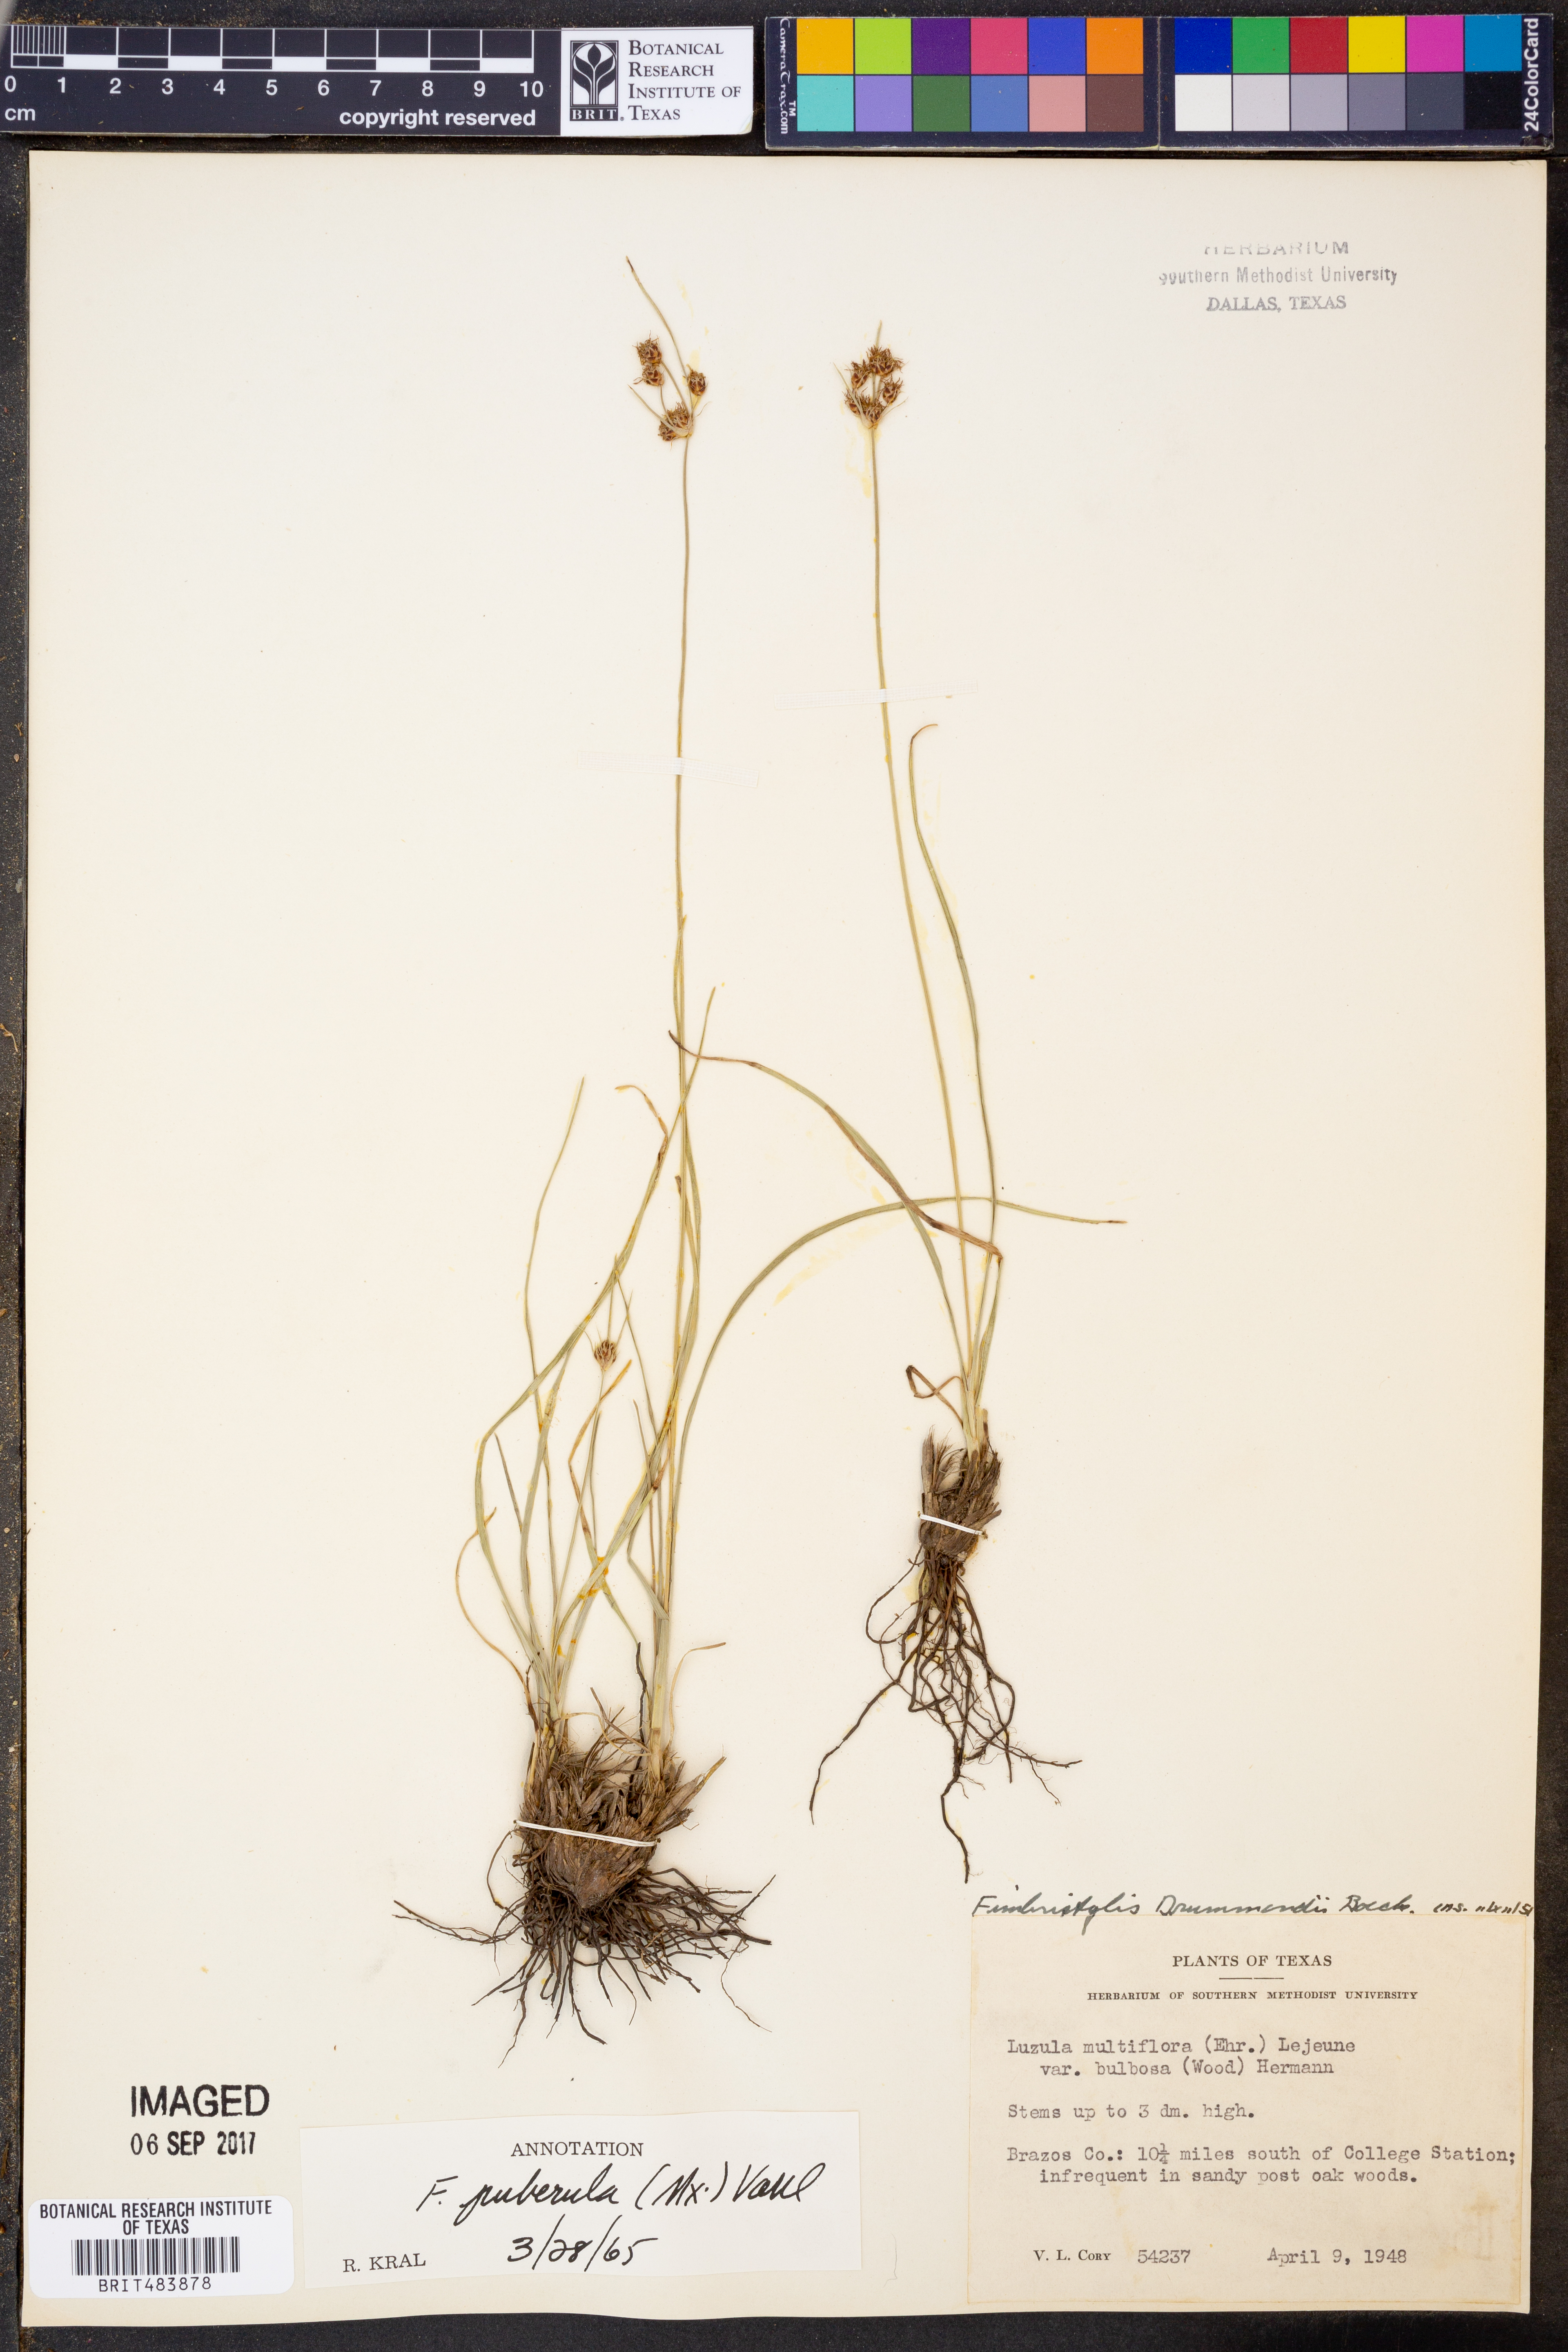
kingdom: Plantae
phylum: Tracheophyta
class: Liliopsida
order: Poales
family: Cyperaceae
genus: Fimbristylis
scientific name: Fimbristylis puberula
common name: Hairy fimbristylis
